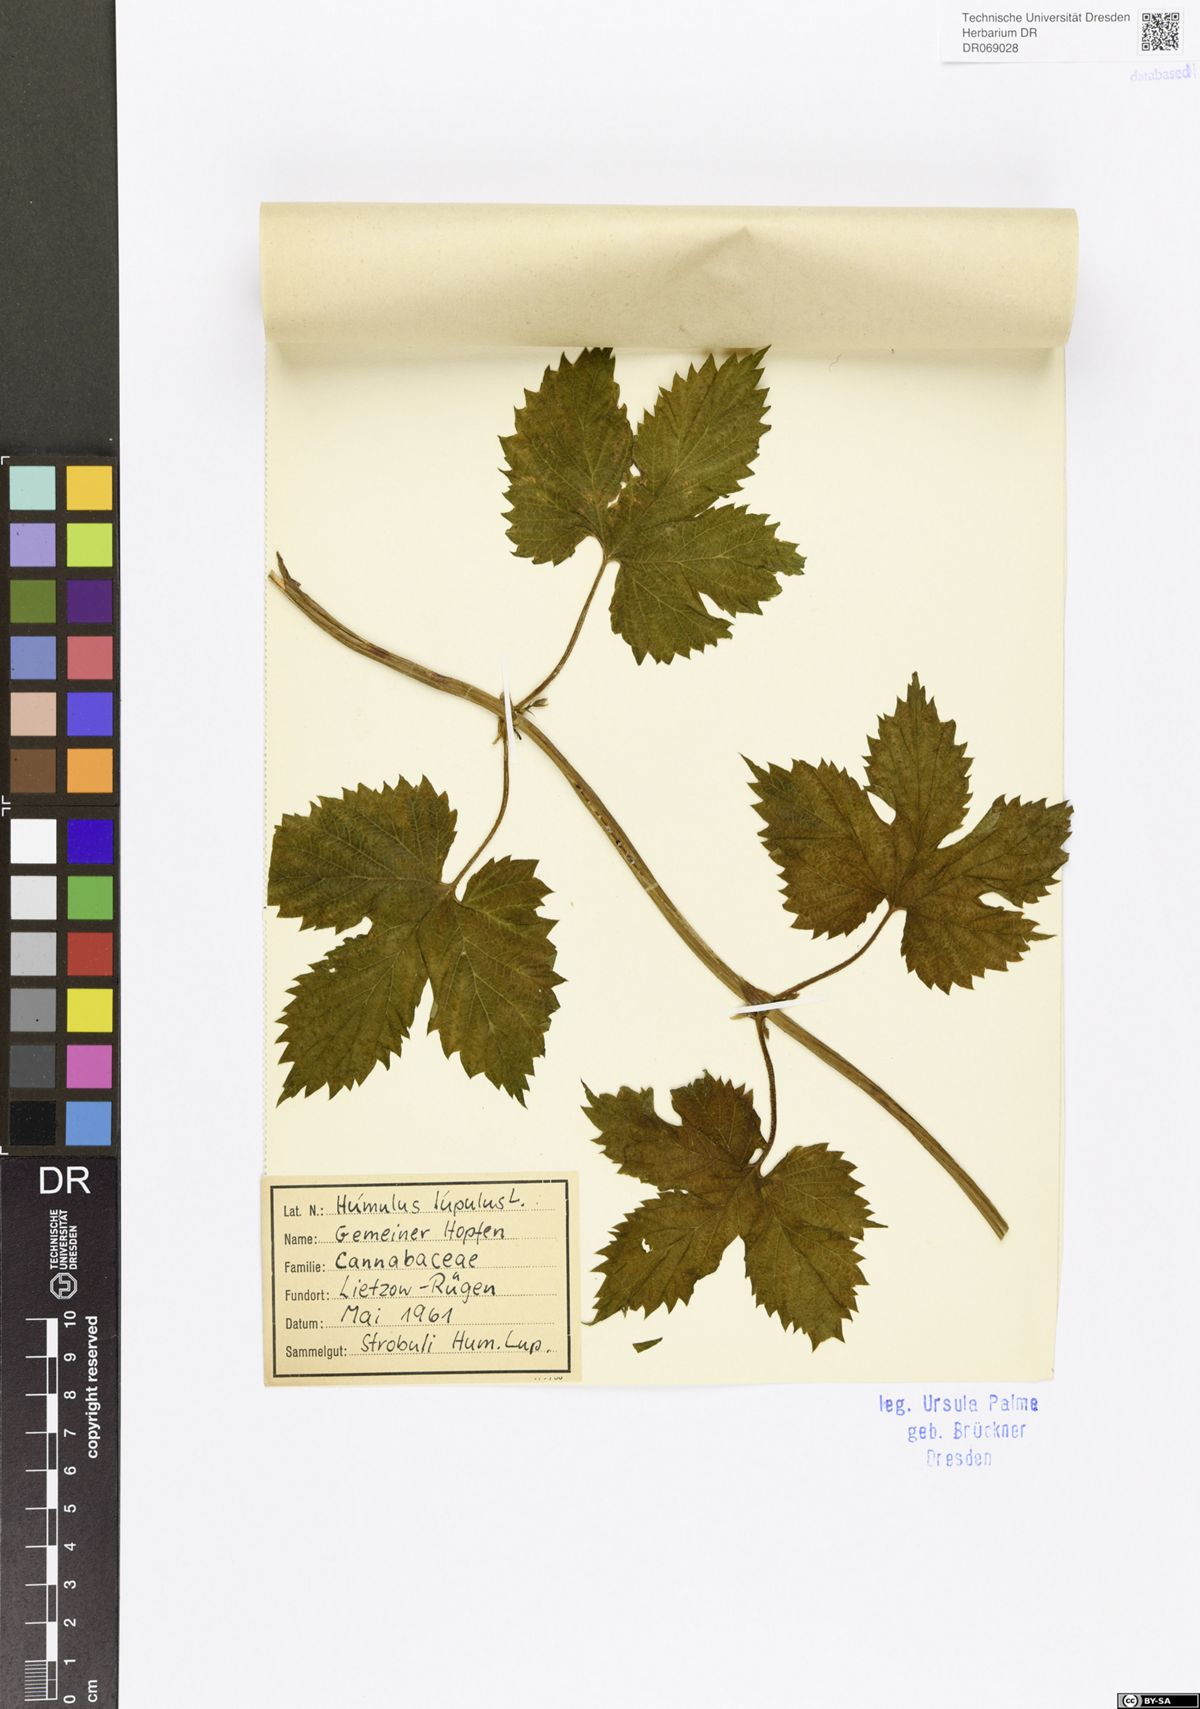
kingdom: Plantae
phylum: Tracheophyta
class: Magnoliopsida
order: Rosales
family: Cannabaceae
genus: Humulus
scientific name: Humulus lupulus
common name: Hop
